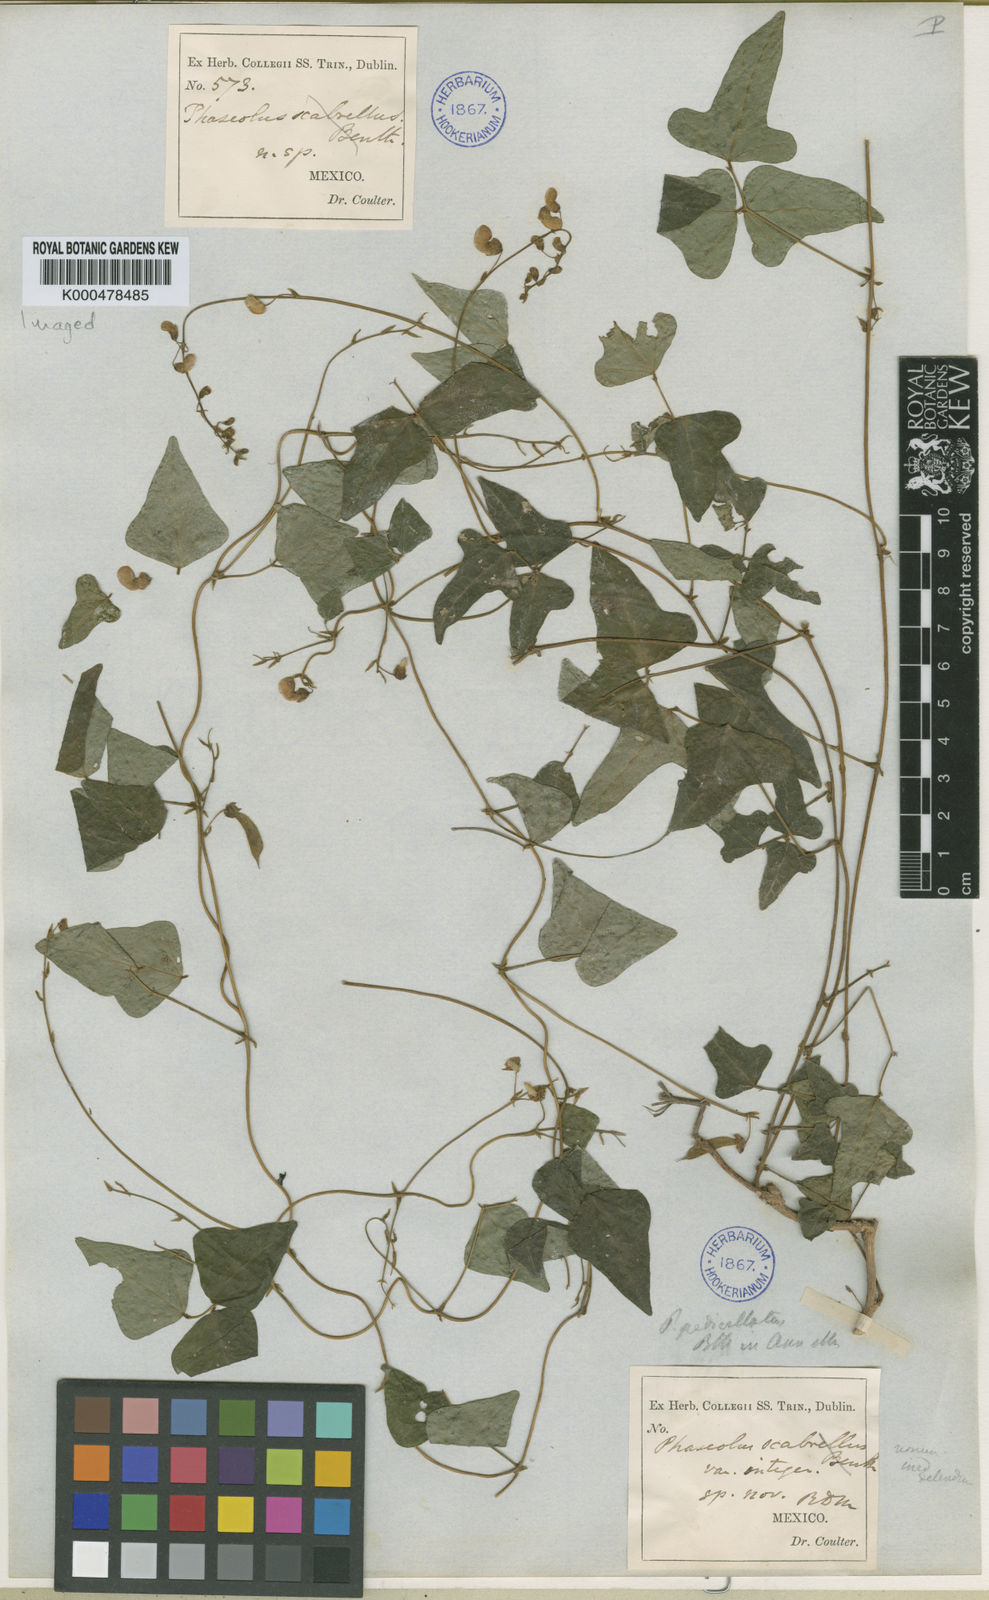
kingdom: Plantae
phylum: Tracheophyta
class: Magnoliopsida
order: Fabales
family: Fabaceae
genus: Phaseolus
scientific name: Phaseolus scabrellus
